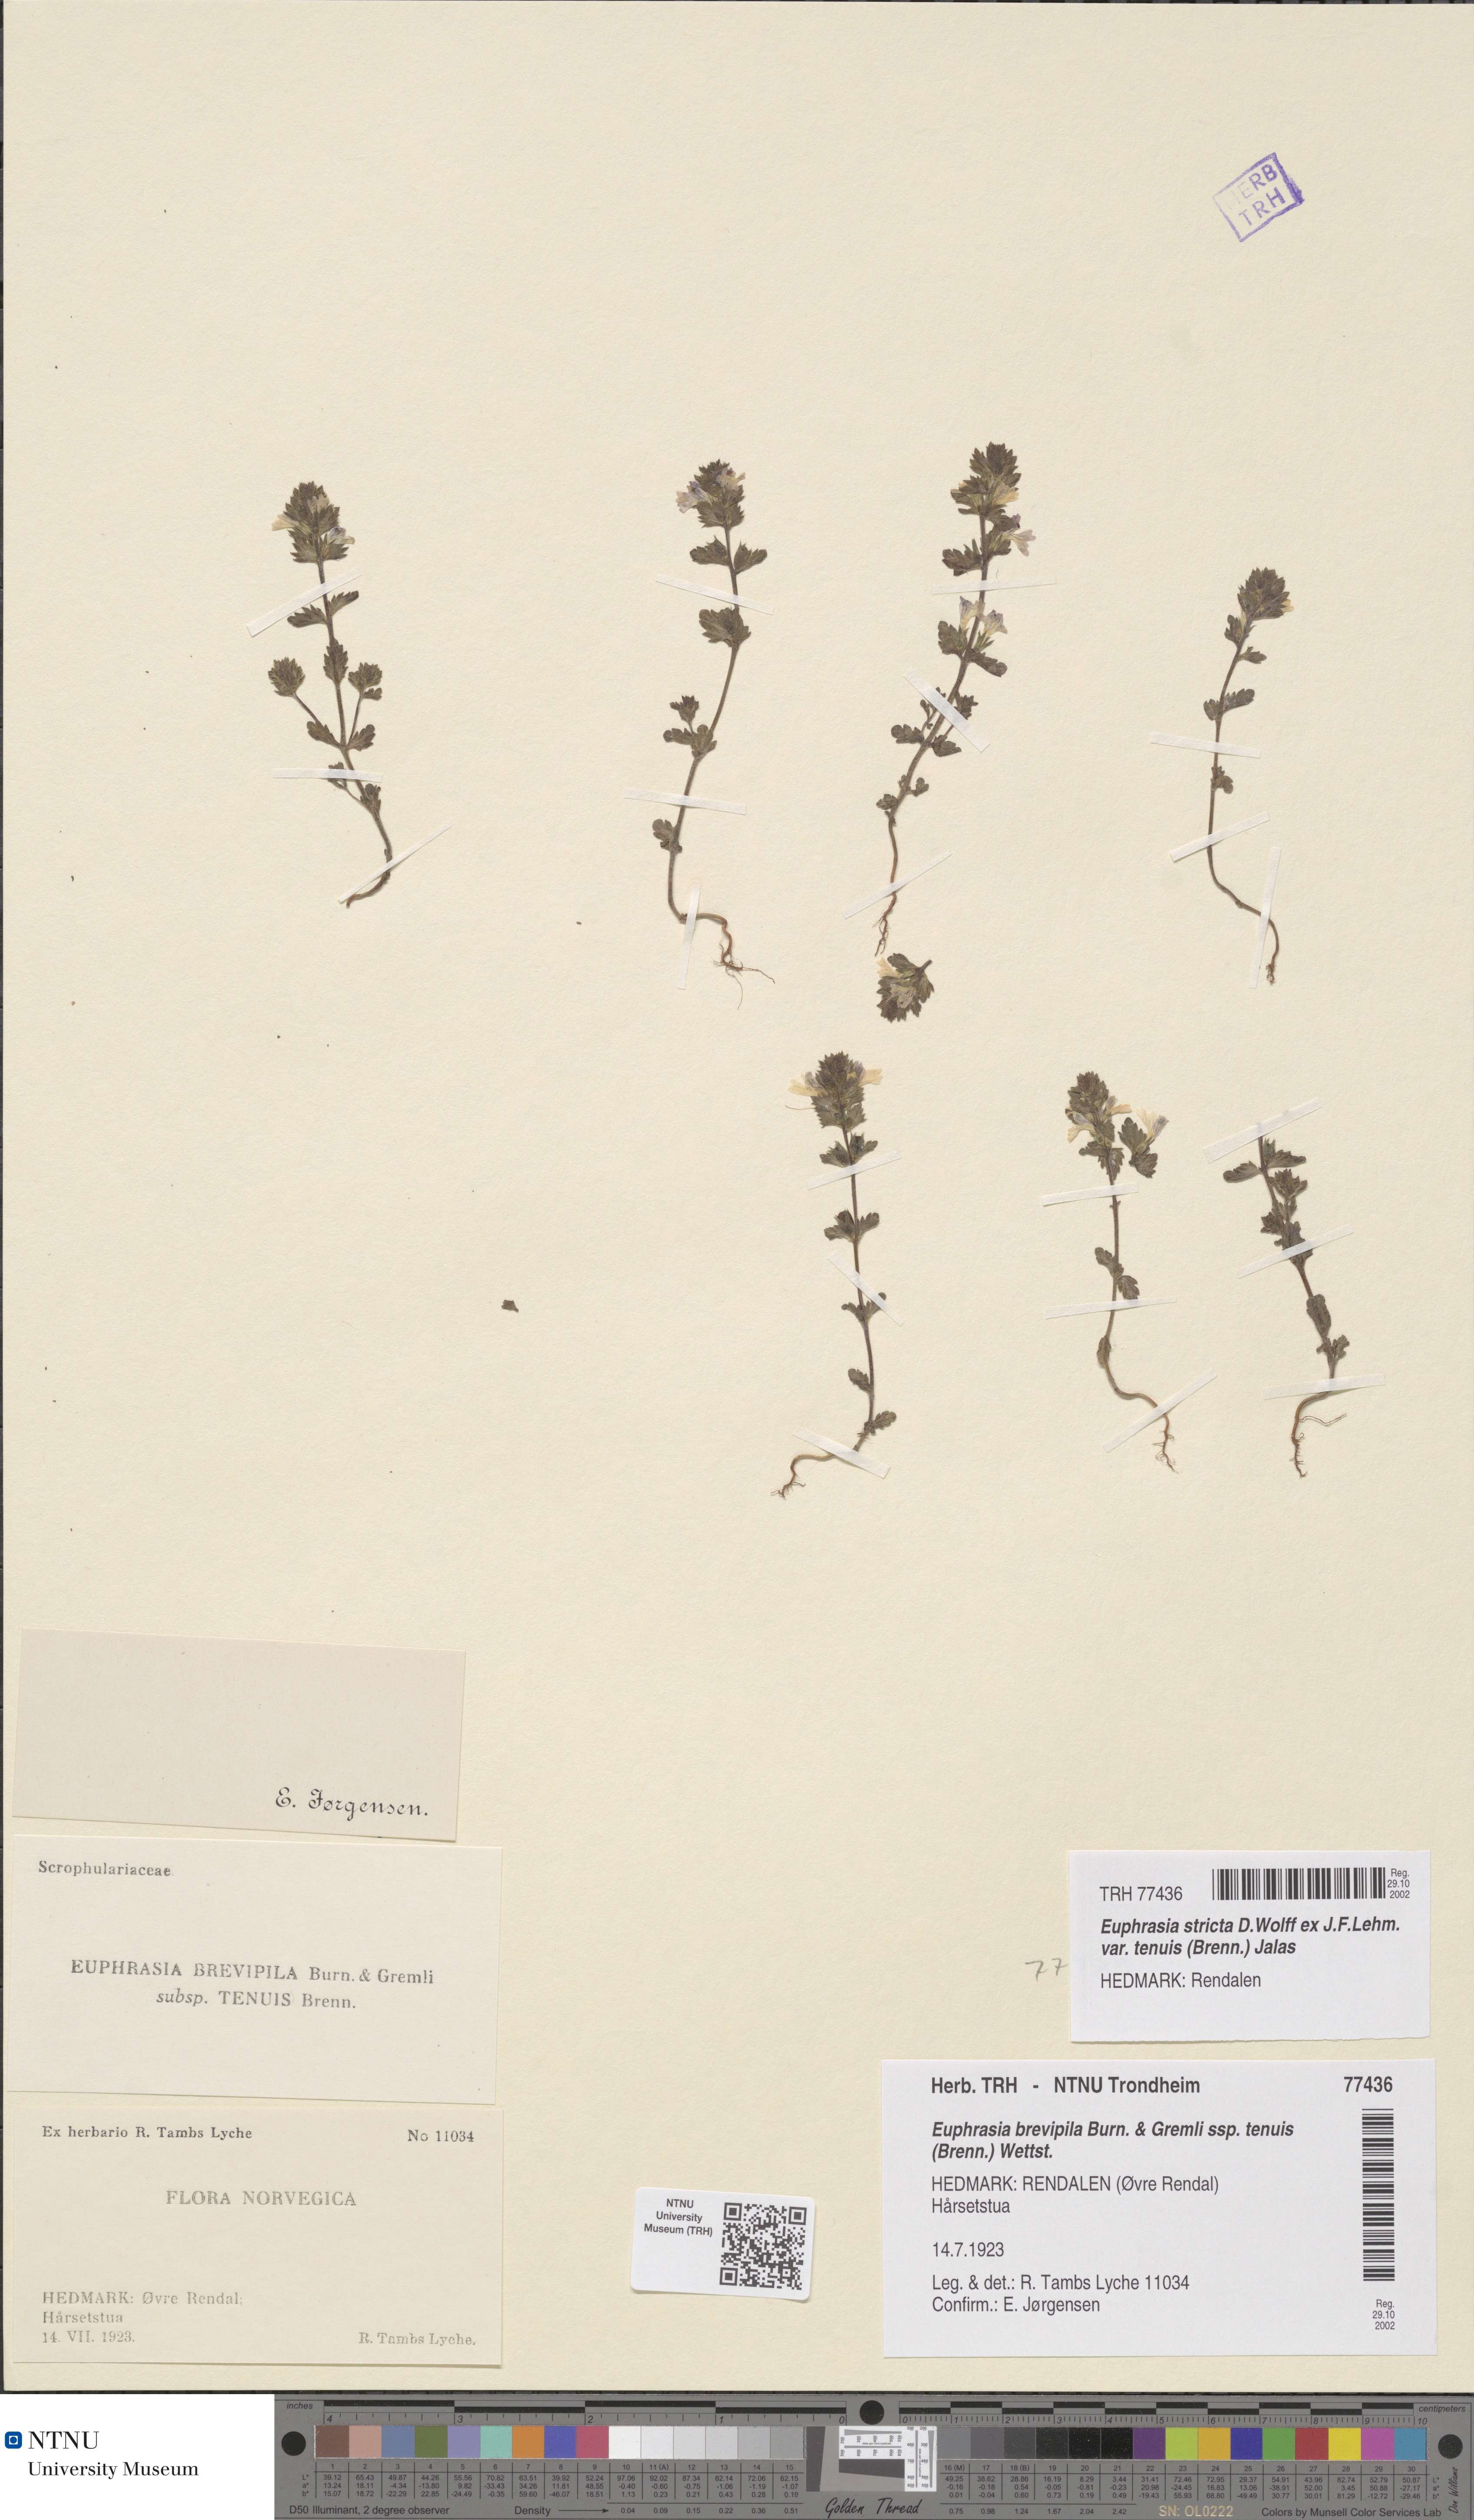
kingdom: Plantae
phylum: Tracheophyta
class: Magnoliopsida
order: Lamiales
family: Orobanchaceae
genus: Euphrasia
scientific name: Euphrasia vernalis
